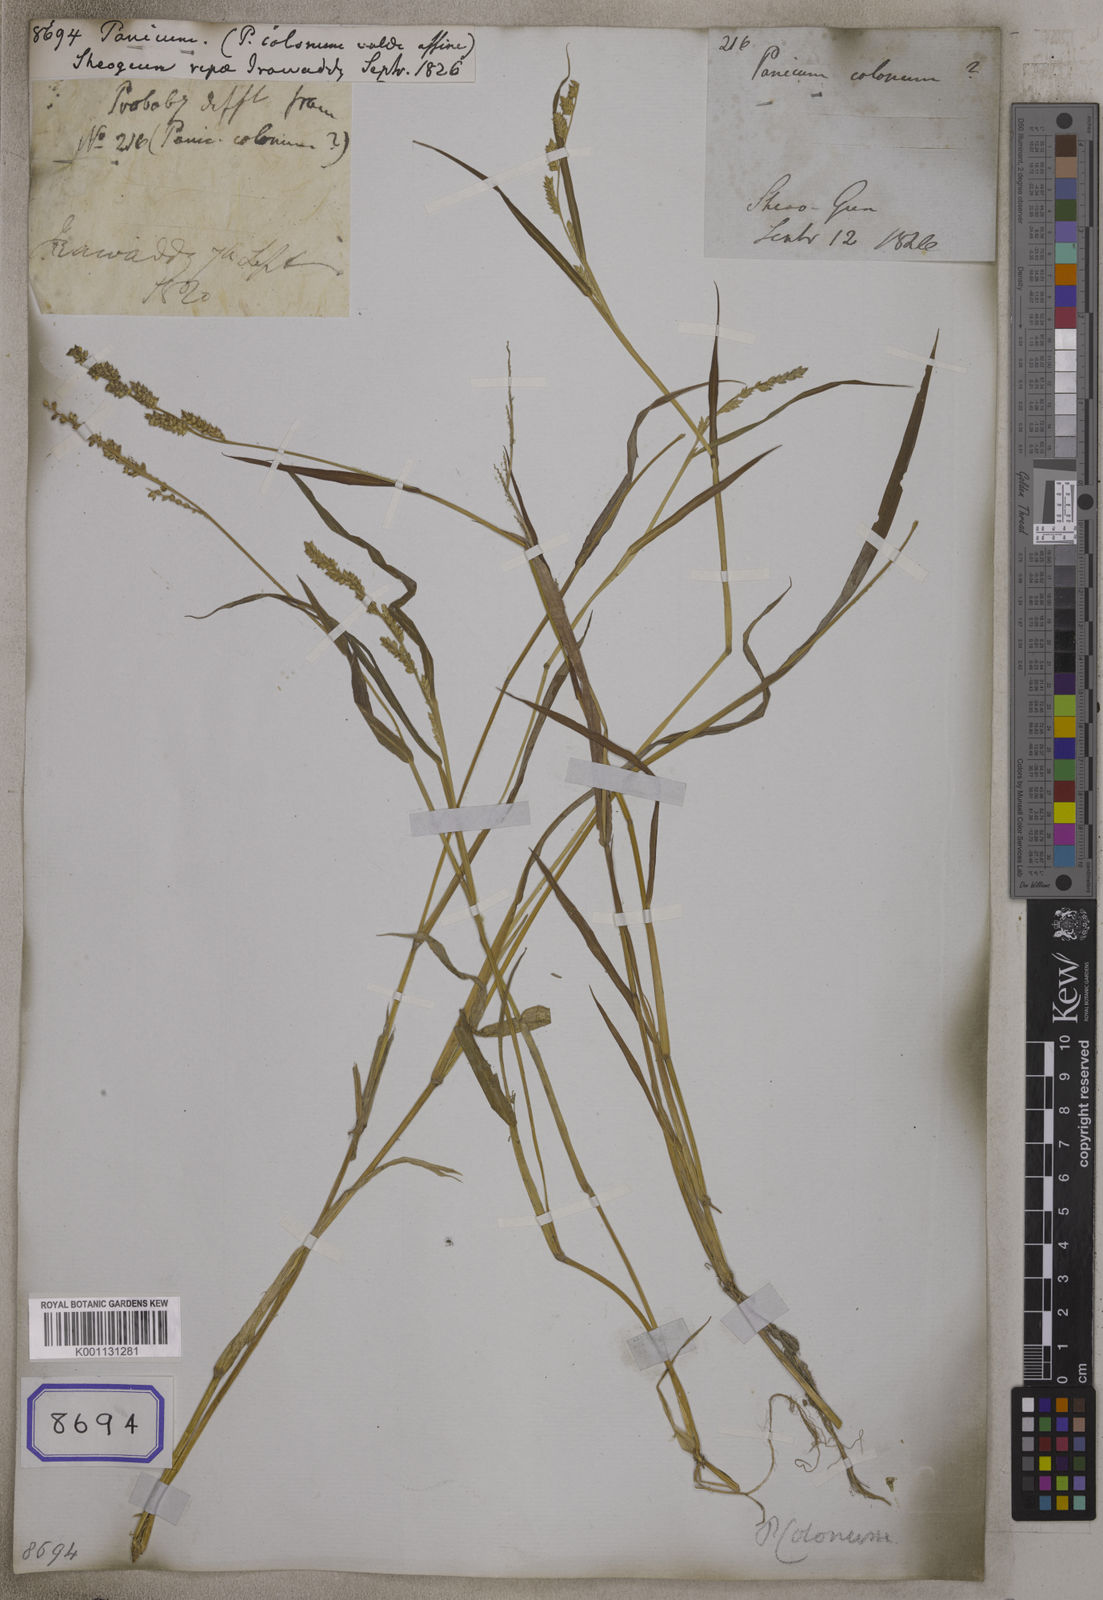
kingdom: Plantae
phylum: Tracheophyta
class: Liliopsida
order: Poales
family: Poaceae
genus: Panicum
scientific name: Panicum
